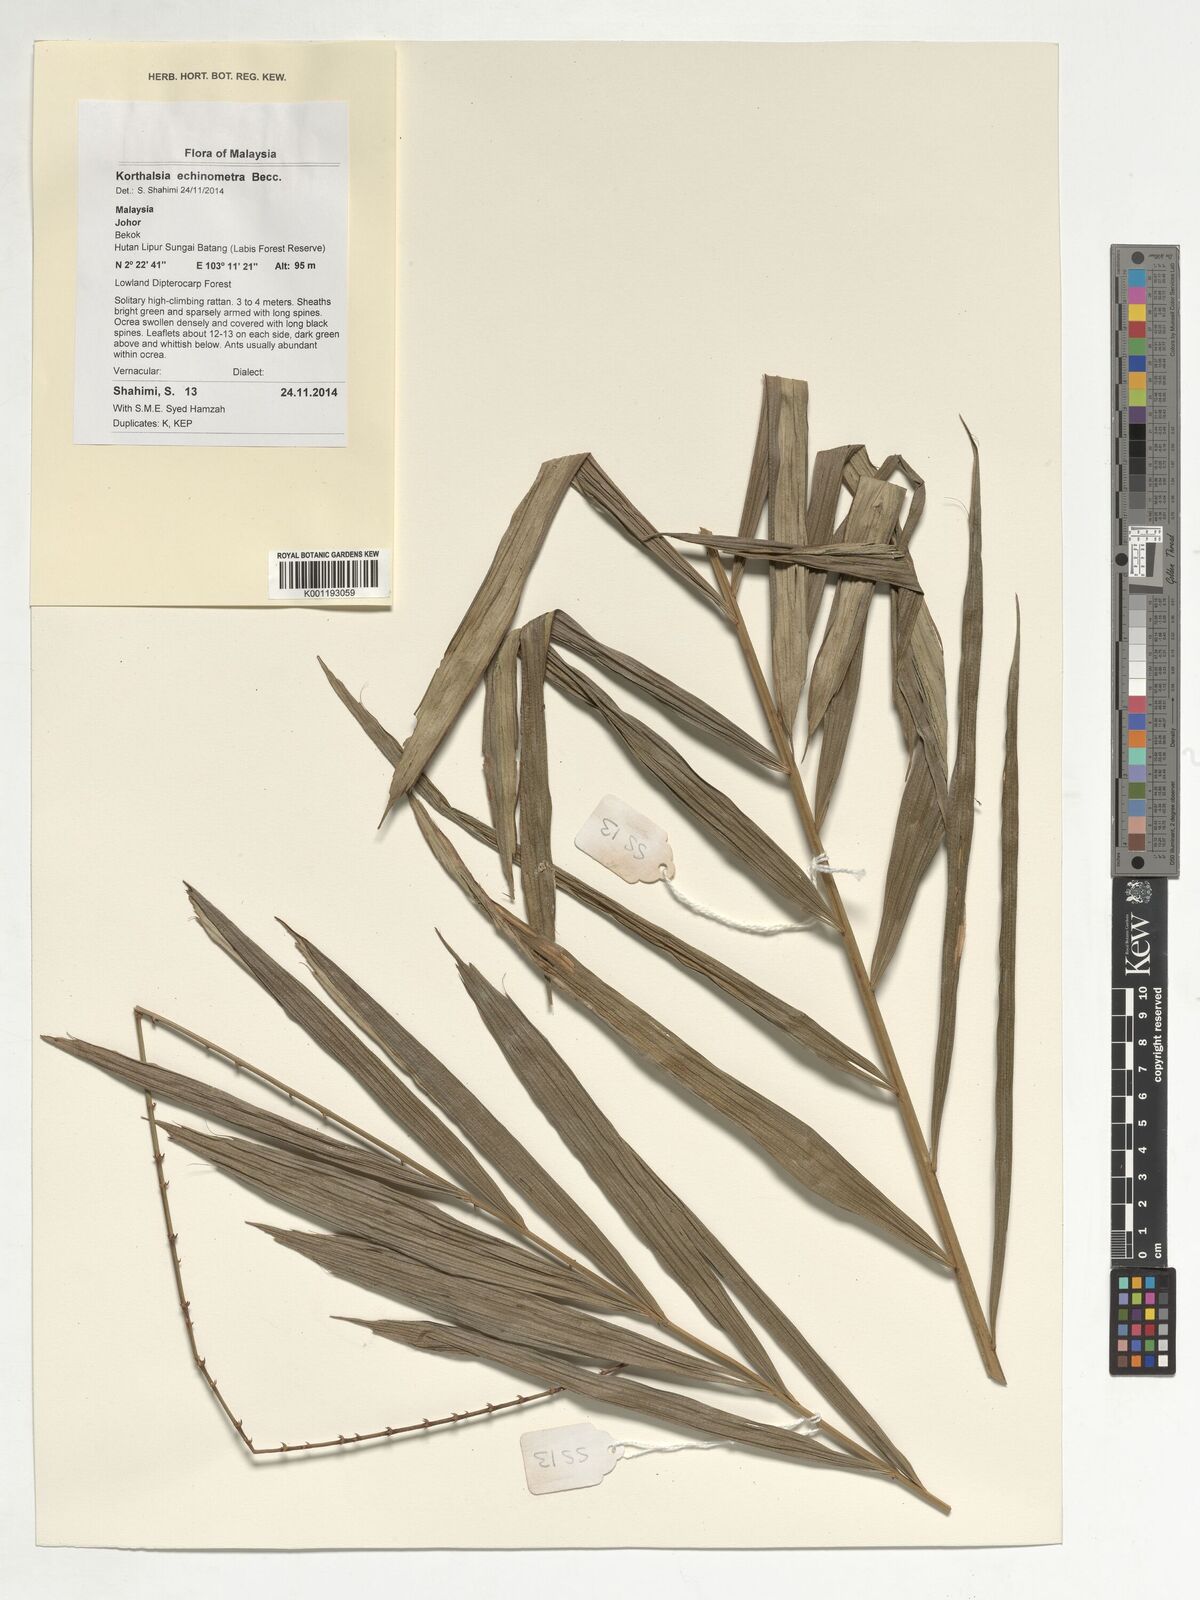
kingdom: Plantae
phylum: Tracheophyta
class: Liliopsida
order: Arecales
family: Arecaceae
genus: Korthalsia
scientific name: Korthalsia echinometra
